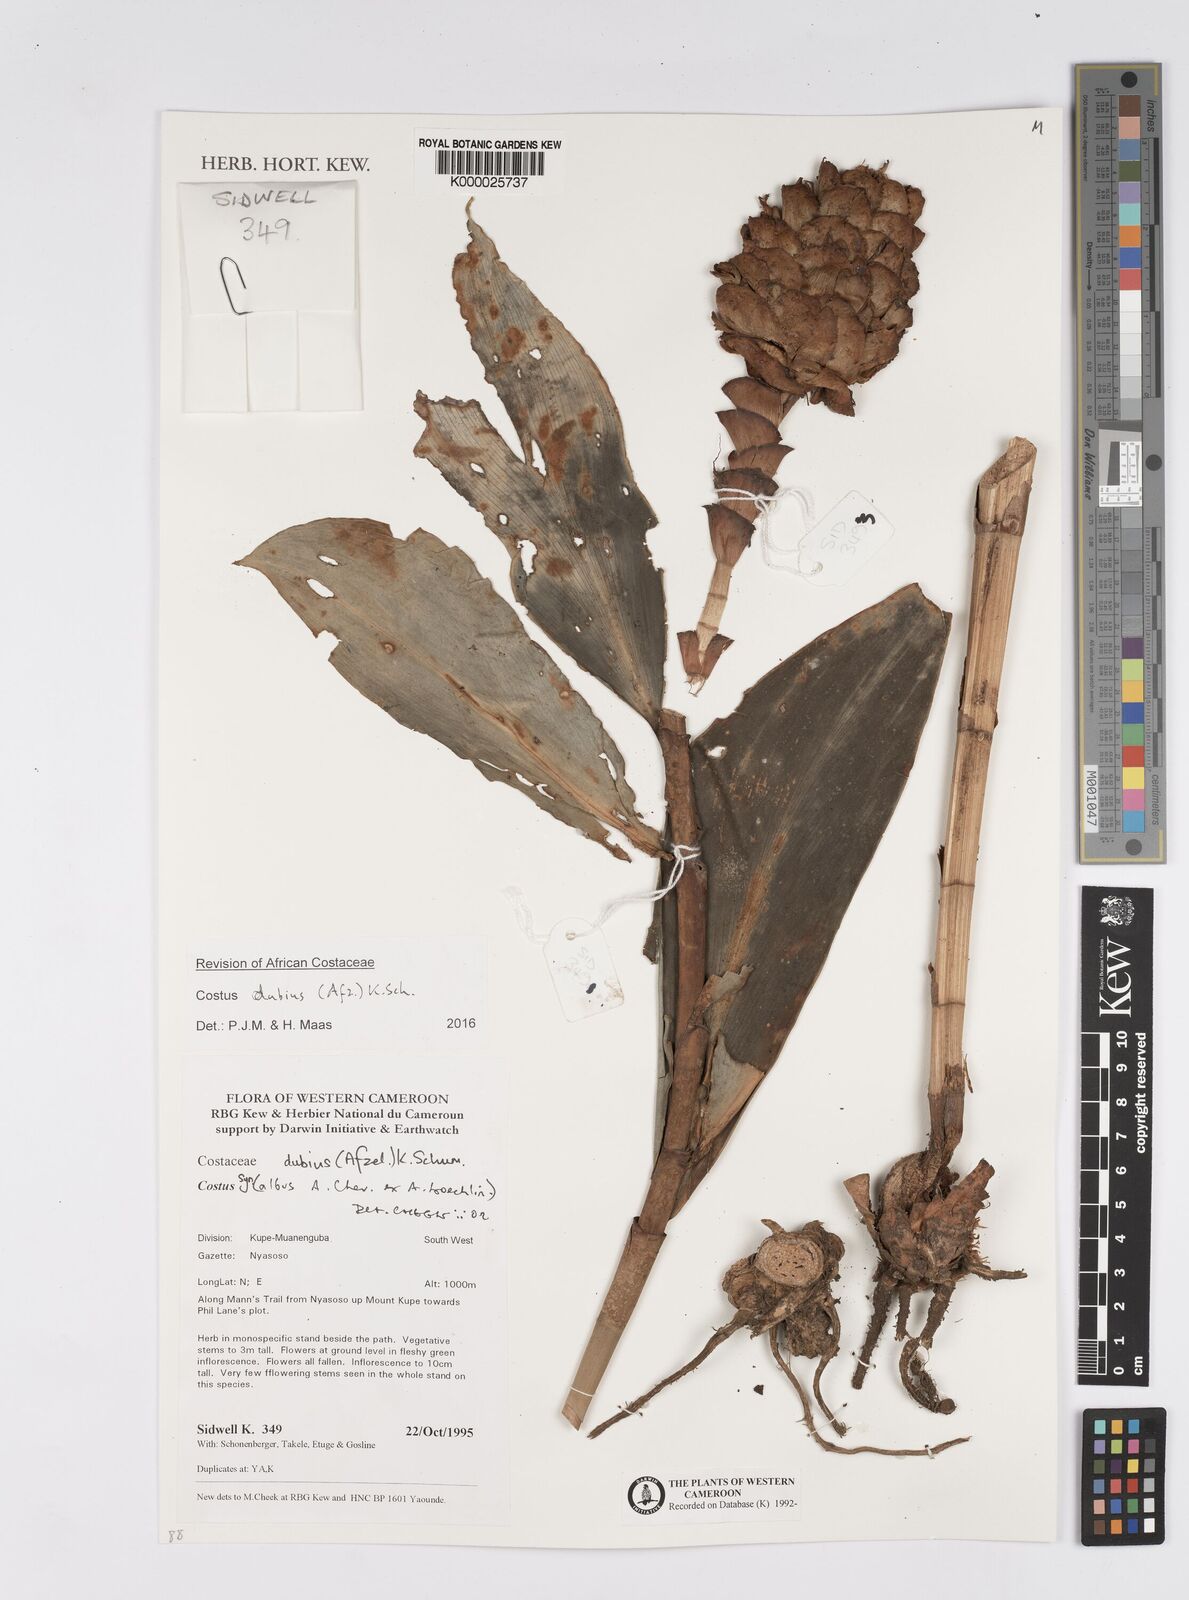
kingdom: Plantae
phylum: Tracheophyta
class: Liliopsida
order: Zingiberales
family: Costaceae
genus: Costus
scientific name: Costus dubius
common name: Costus
